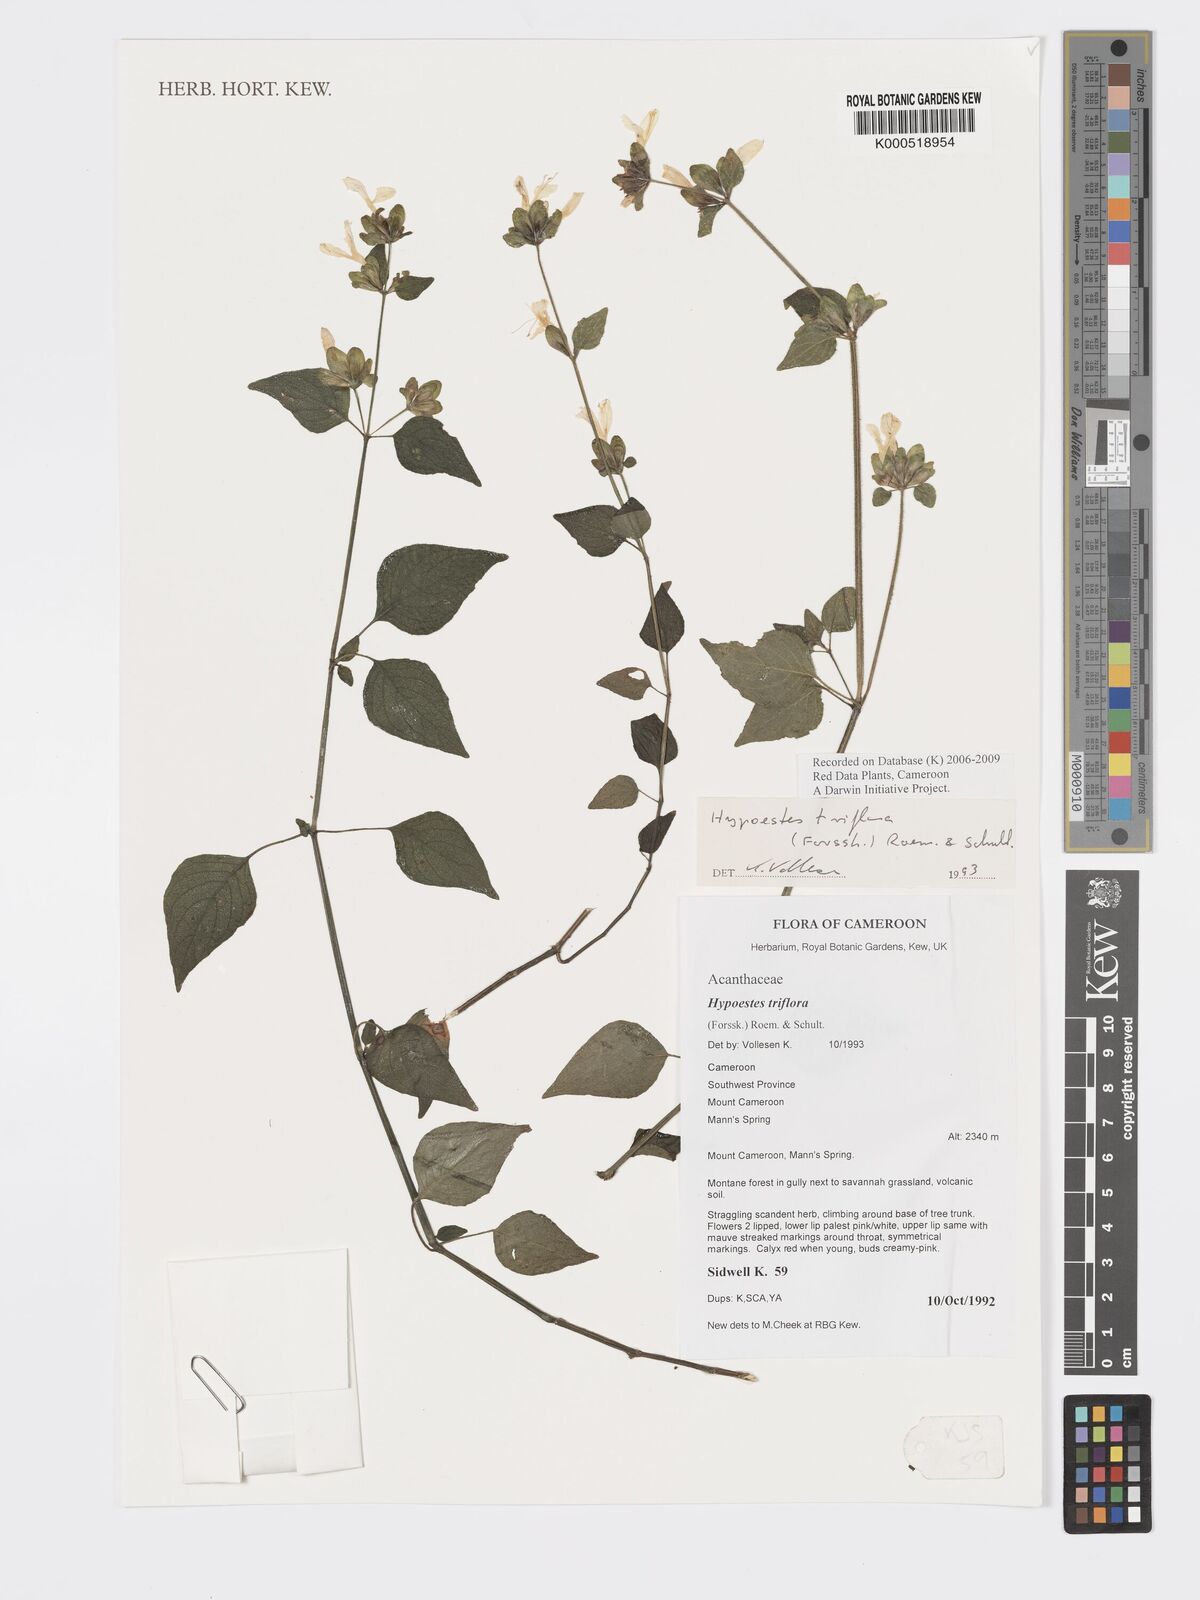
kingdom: Plantae
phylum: Tracheophyta
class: Magnoliopsida
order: Lamiales
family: Acanthaceae
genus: Hypoestes
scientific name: Hypoestes triflora
